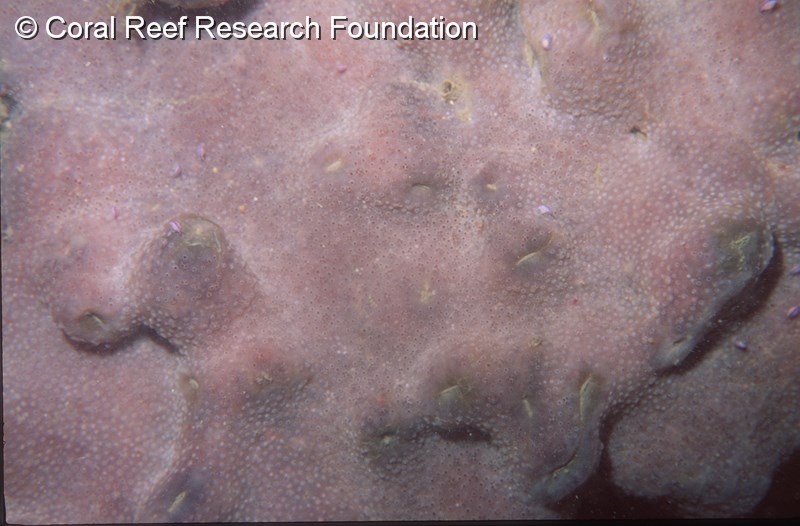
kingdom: Animalia
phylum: Chordata
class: Ascidiacea
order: Aplousobranchia
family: Polycitoridae
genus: Cystodytes
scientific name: Cystodytes dellechiajei
